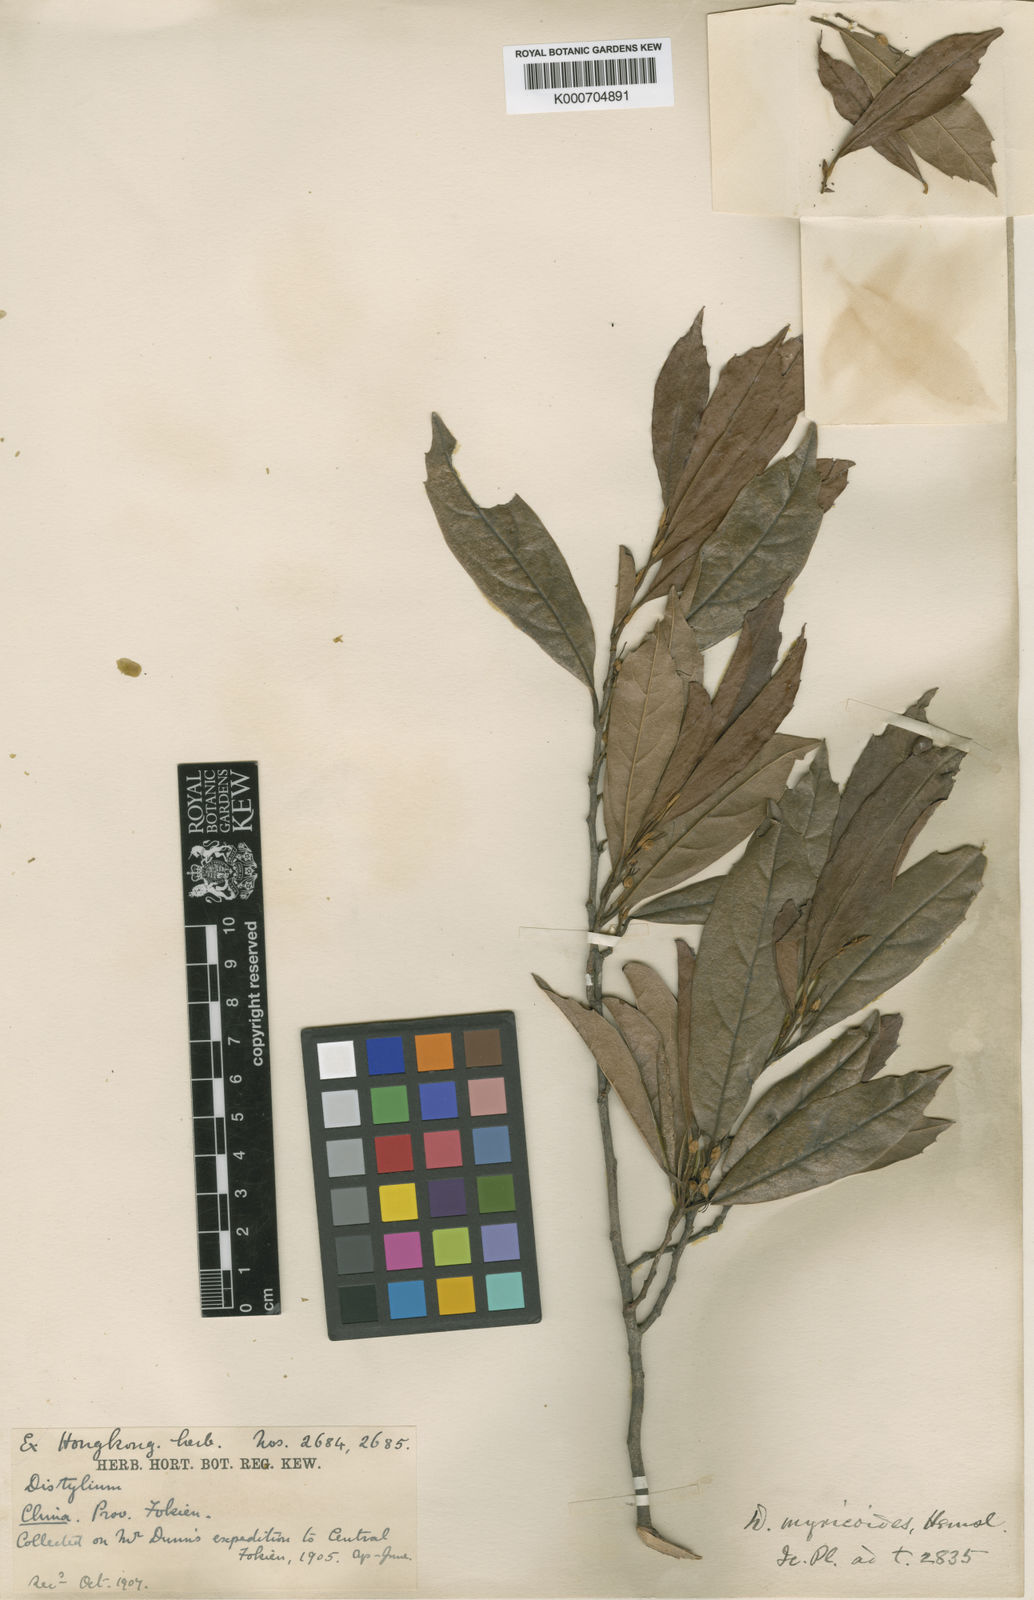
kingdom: Plantae
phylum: Tracheophyta
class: Magnoliopsida
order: Saxifragales
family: Hamamelidaceae
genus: Distylium
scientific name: Distylium myricoides
